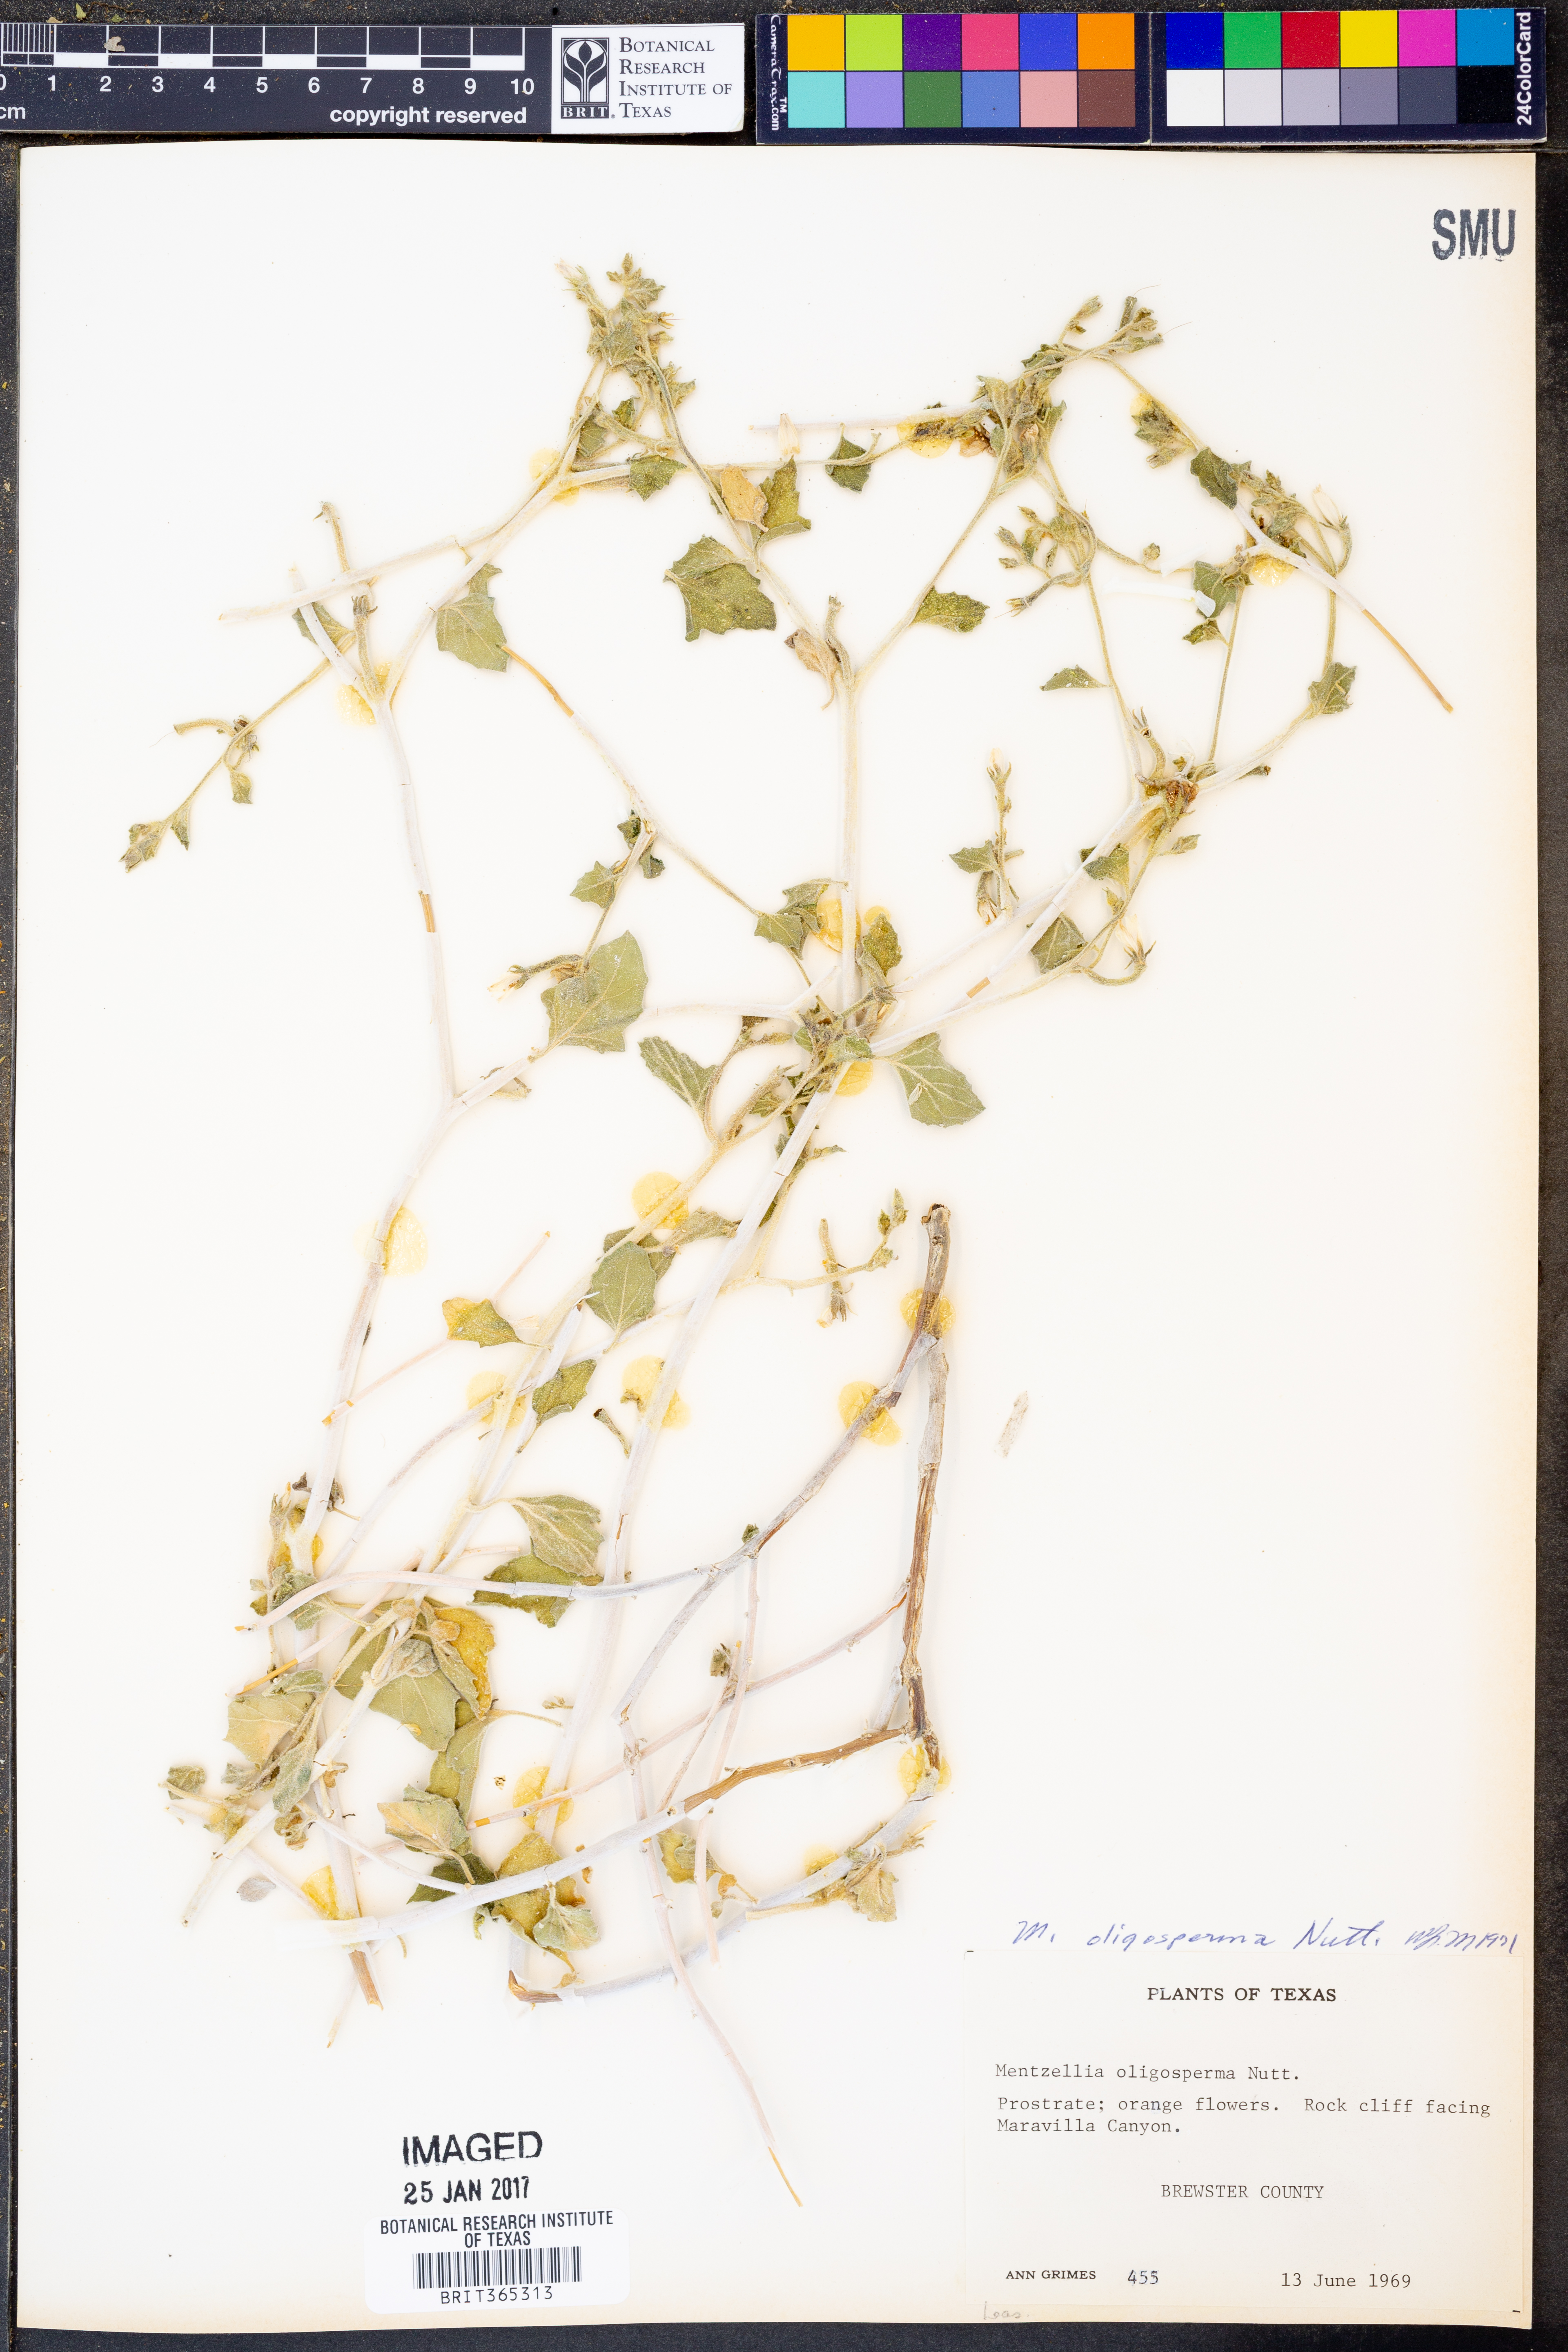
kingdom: Plantae
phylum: Tracheophyta
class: Magnoliopsida
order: Cornales
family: Loasaceae
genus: Mentzelia
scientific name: Mentzelia oligosperma
